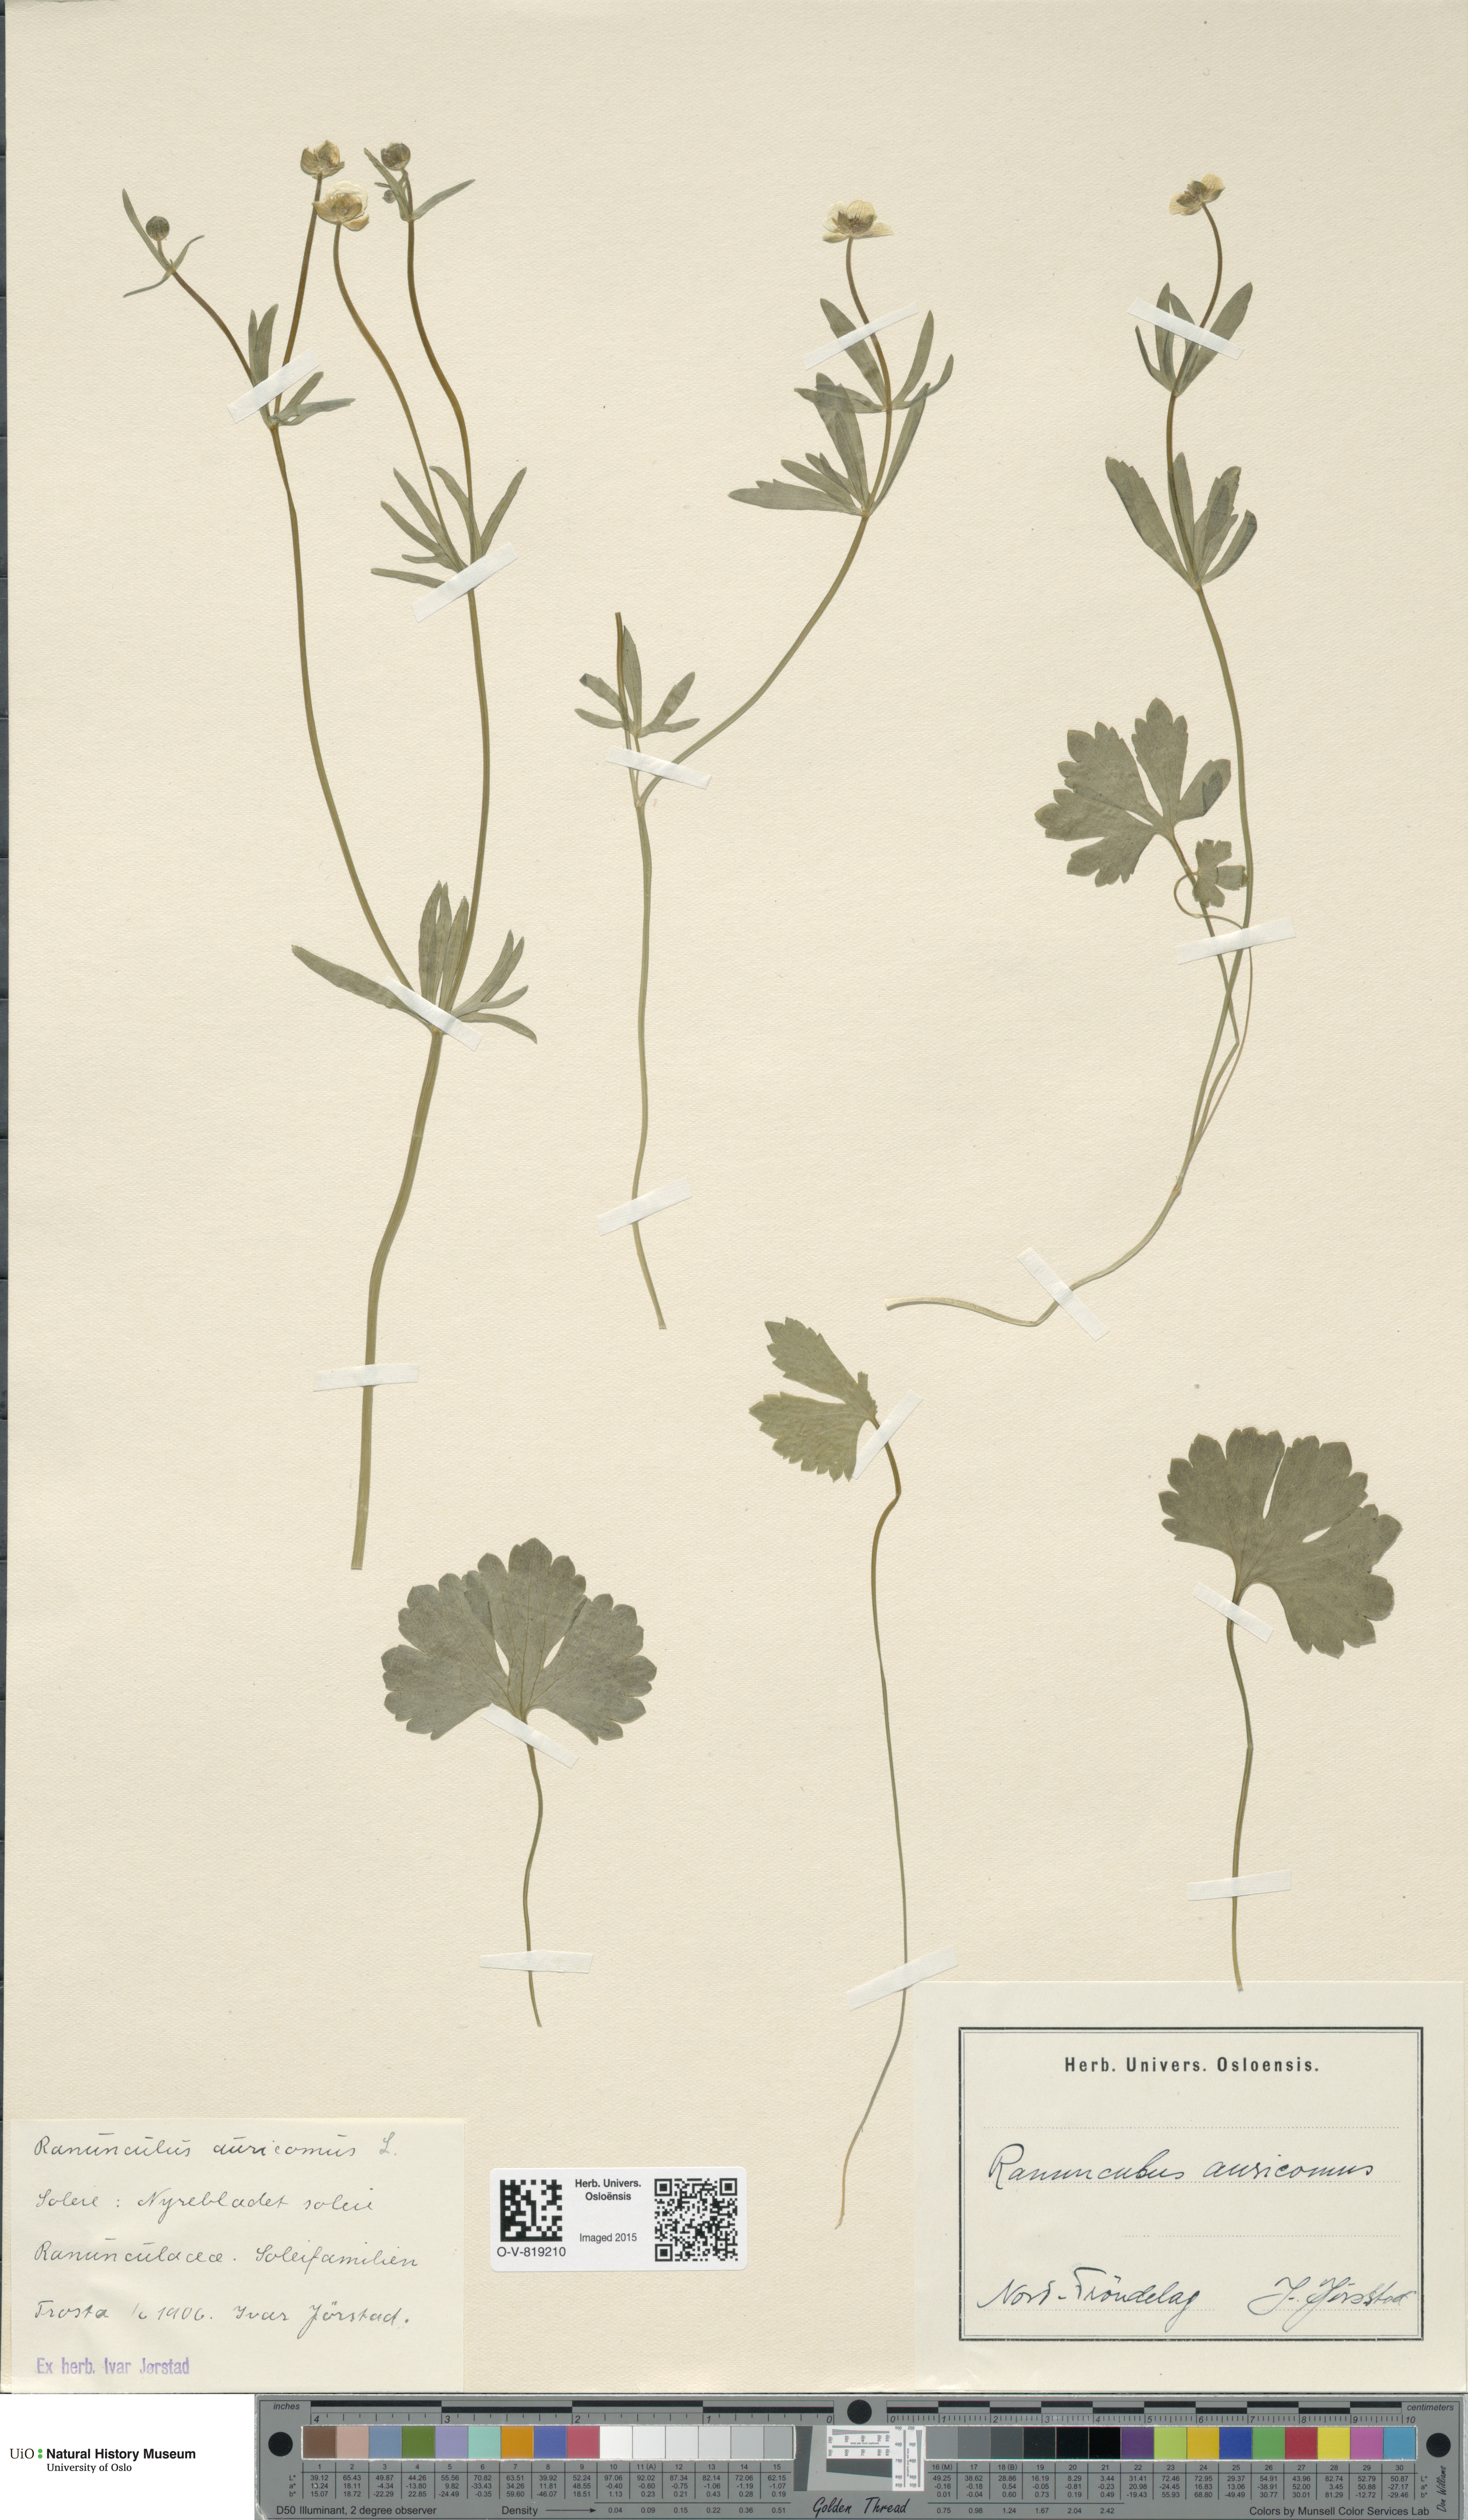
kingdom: Plantae
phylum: Tracheophyta
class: Magnoliopsida
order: Ranunculales
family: Ranunculaceae
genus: Ranunculus
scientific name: Ranunculus auricomus
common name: Goldilocks buttercup
